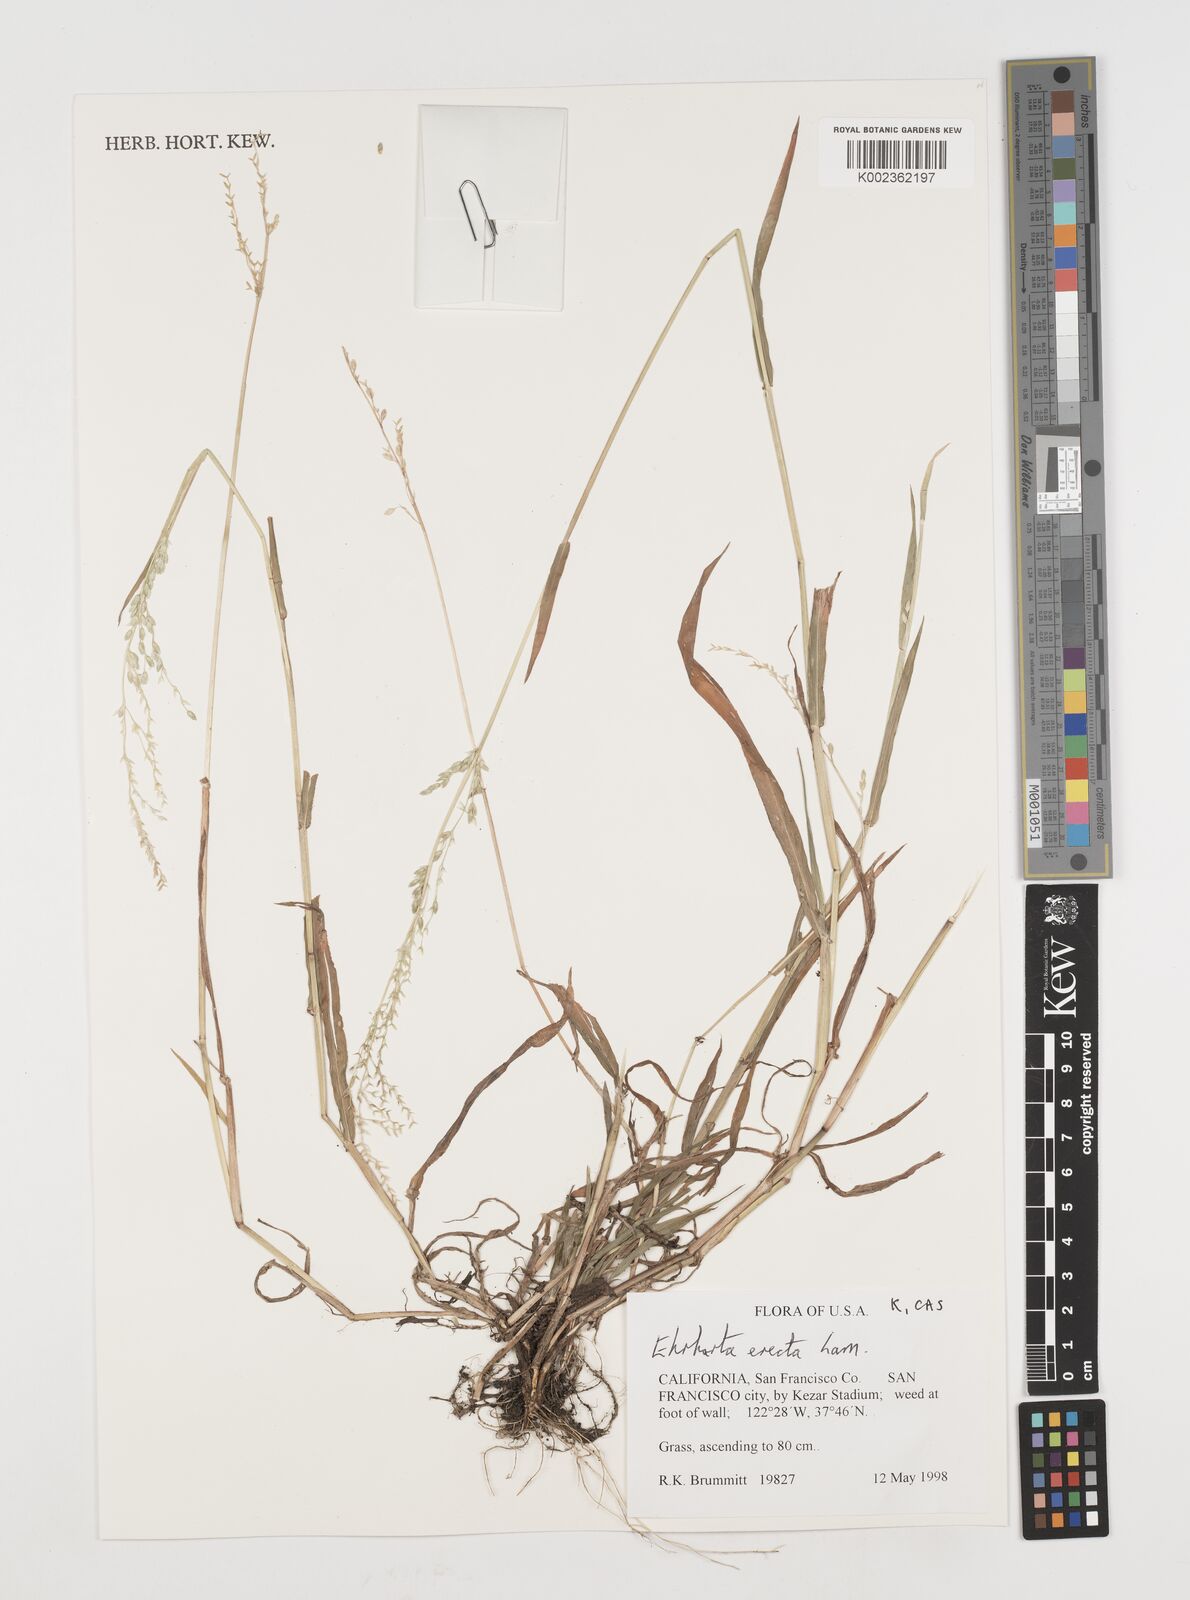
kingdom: Plantae
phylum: Tracheophyta
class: Liliopsida
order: Poales
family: Poaceae
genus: Ehrharta
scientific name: Ehrharta erecta
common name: Panic veldtgrass
